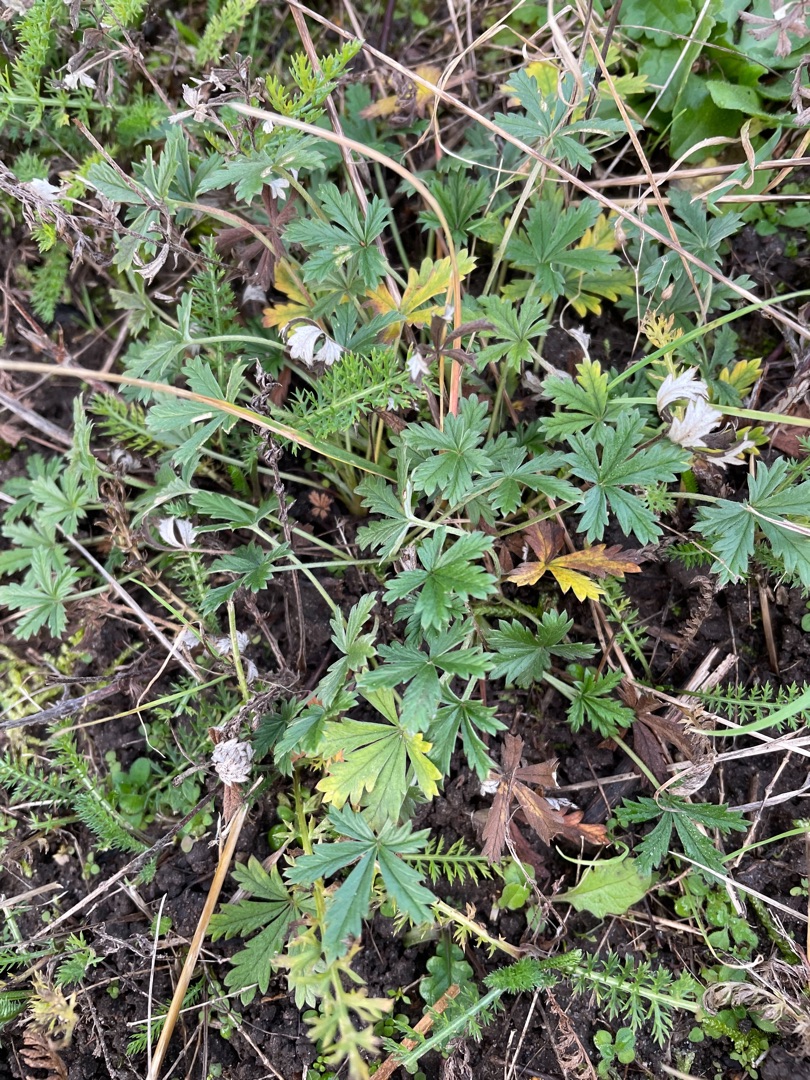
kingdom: Plantae
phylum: Tracheophyta
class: Magnoliopsida
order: Rosales
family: Rosaceae
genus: Potentilla
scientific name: Potentilla argentea
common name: Sølv-potentil
